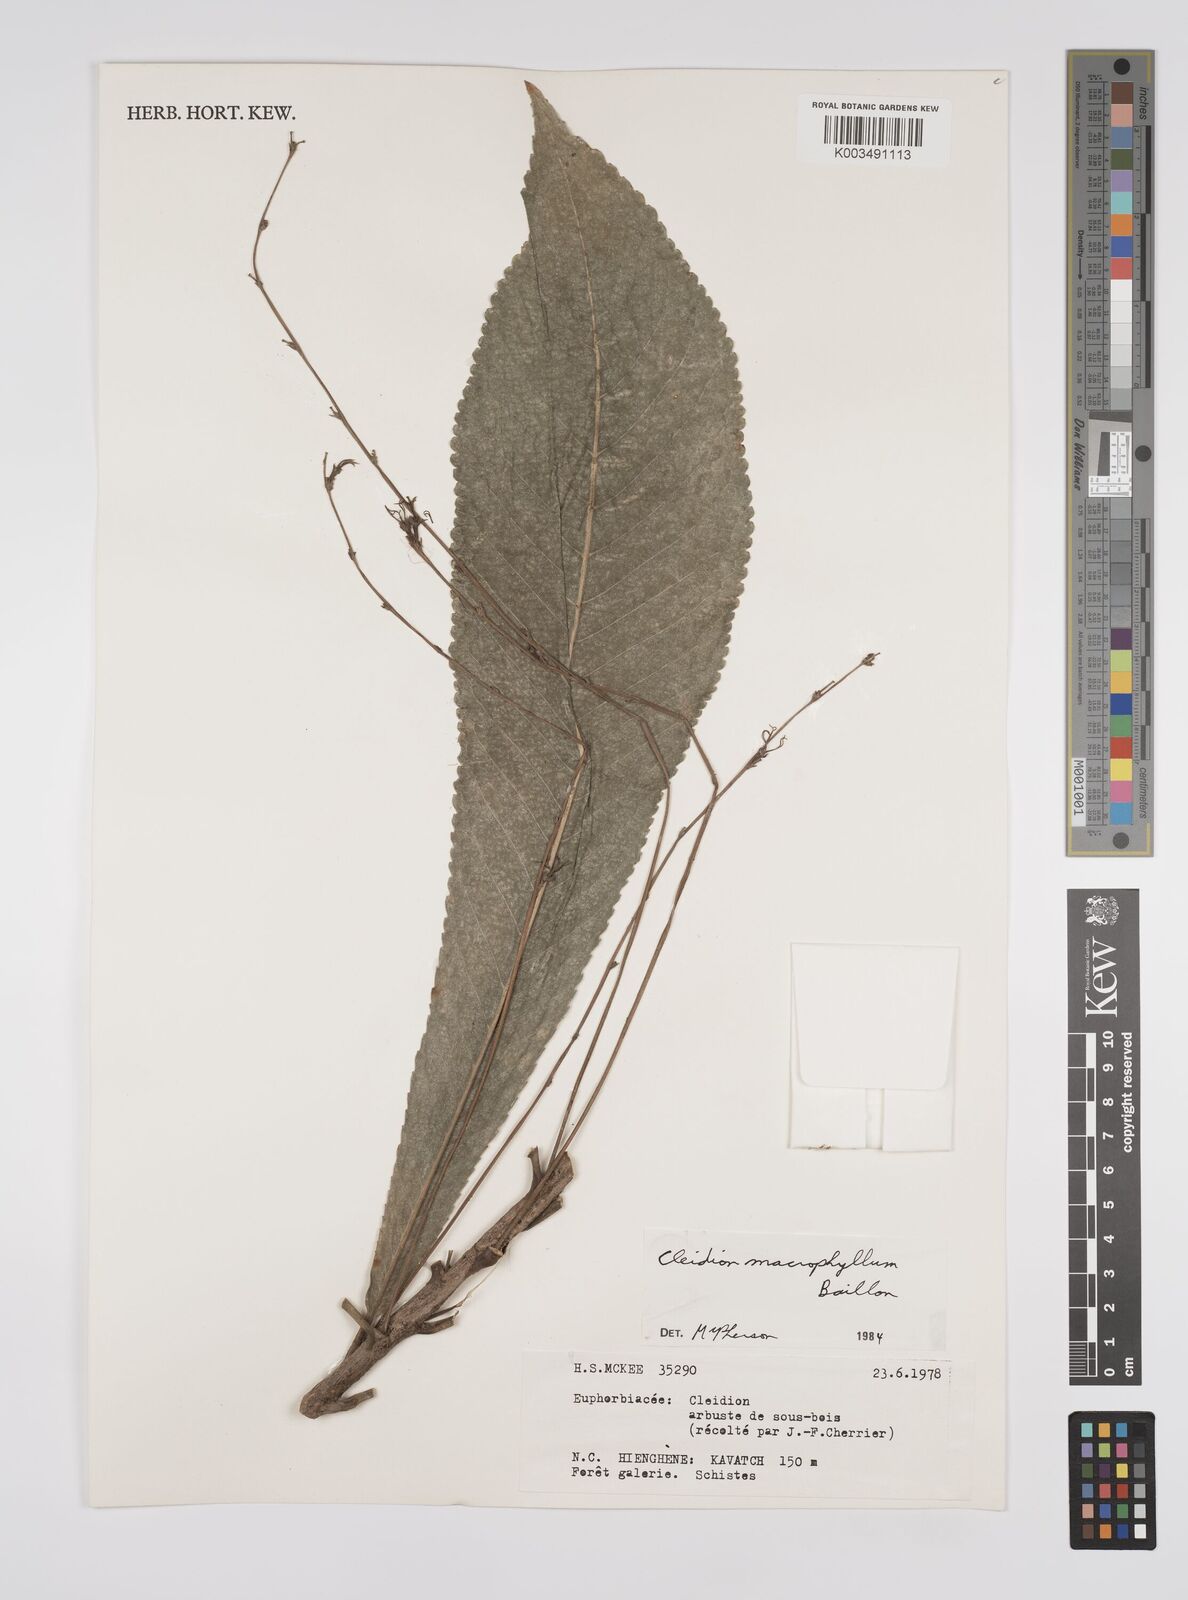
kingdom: Plantae
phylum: Tracheophyta
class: Magnoliopsida
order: Malpighiales
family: Euphorbiaceae
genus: Cleidion
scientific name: Cleidion macrophyllum
